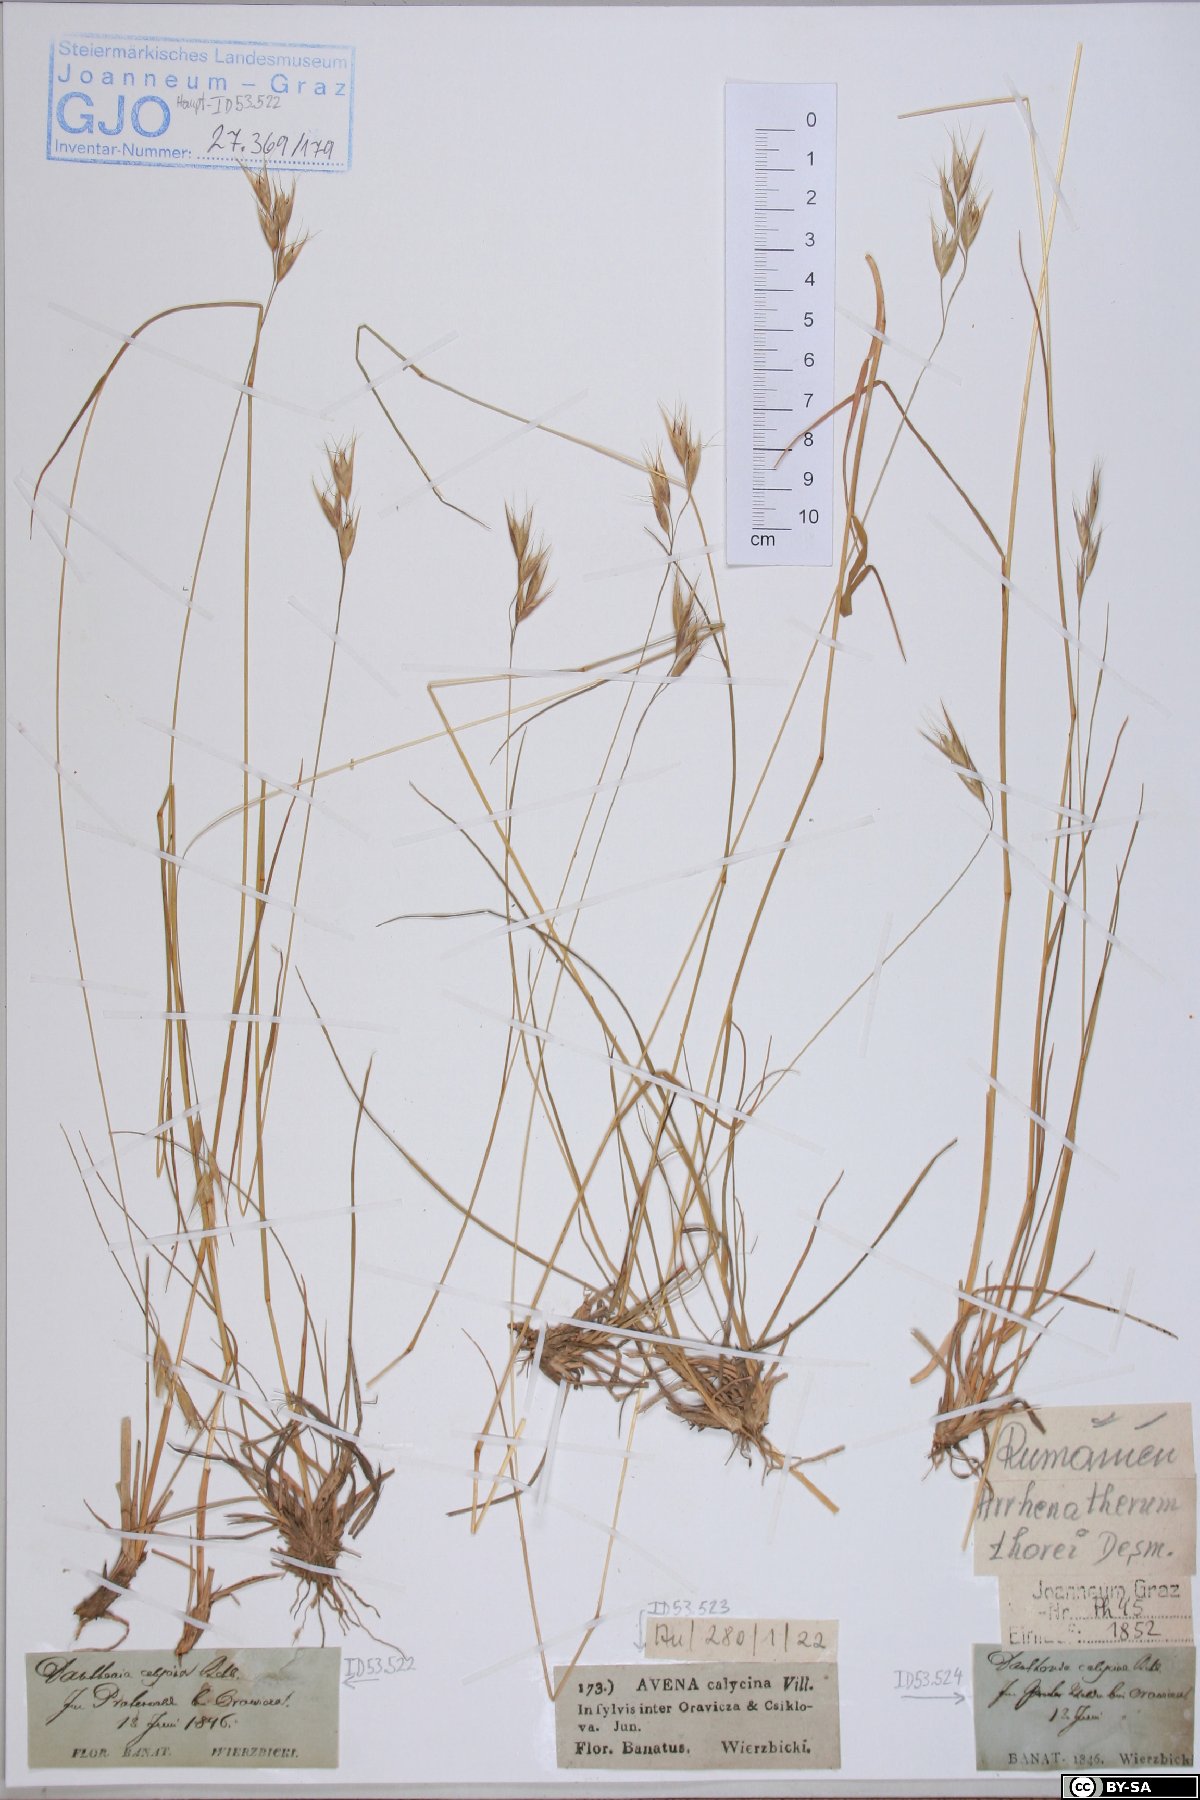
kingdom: Plantae
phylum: Tracheophyta
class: Liliopsida
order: Poales
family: Poaceae
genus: Danthonia
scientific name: Danthonia alpina
